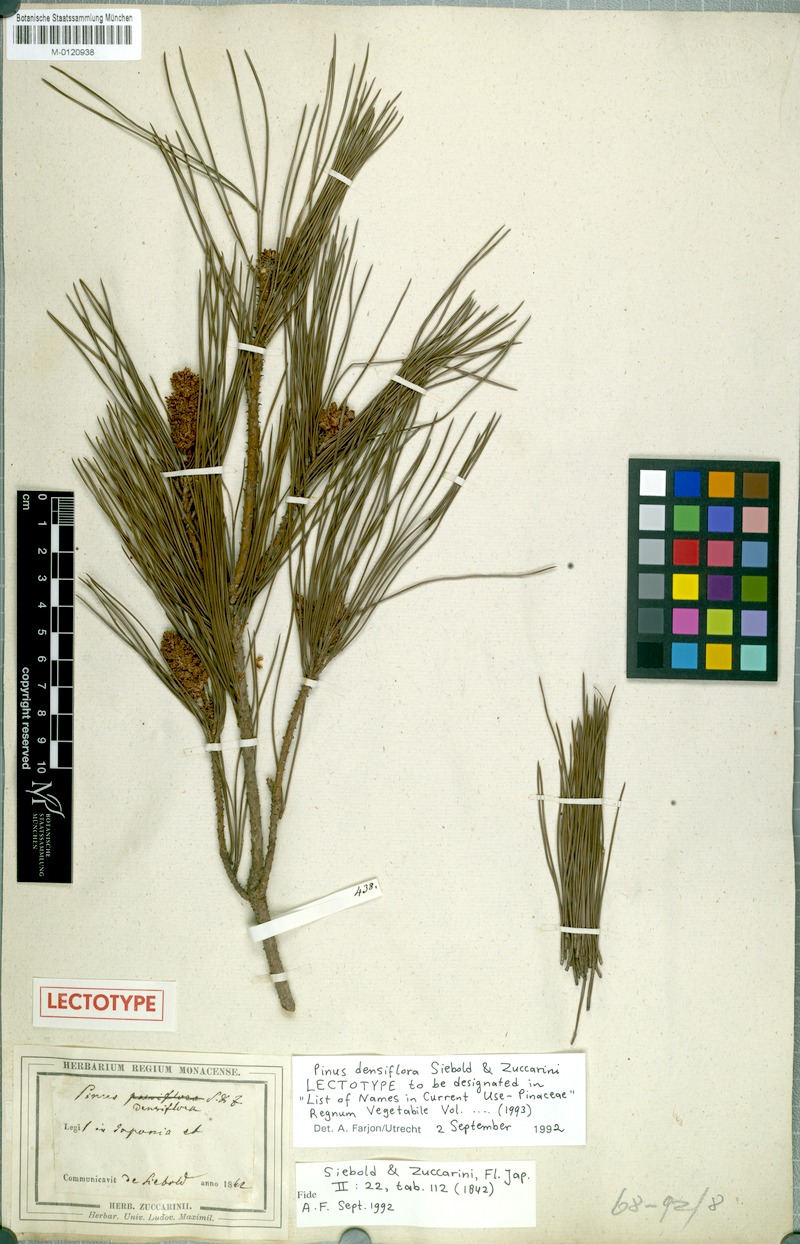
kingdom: Plantae
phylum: Tracheophyta
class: Pinopsida
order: Pinales
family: Pinaceae
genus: Pinus
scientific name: Pinus densiflora
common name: Japanese red pine
